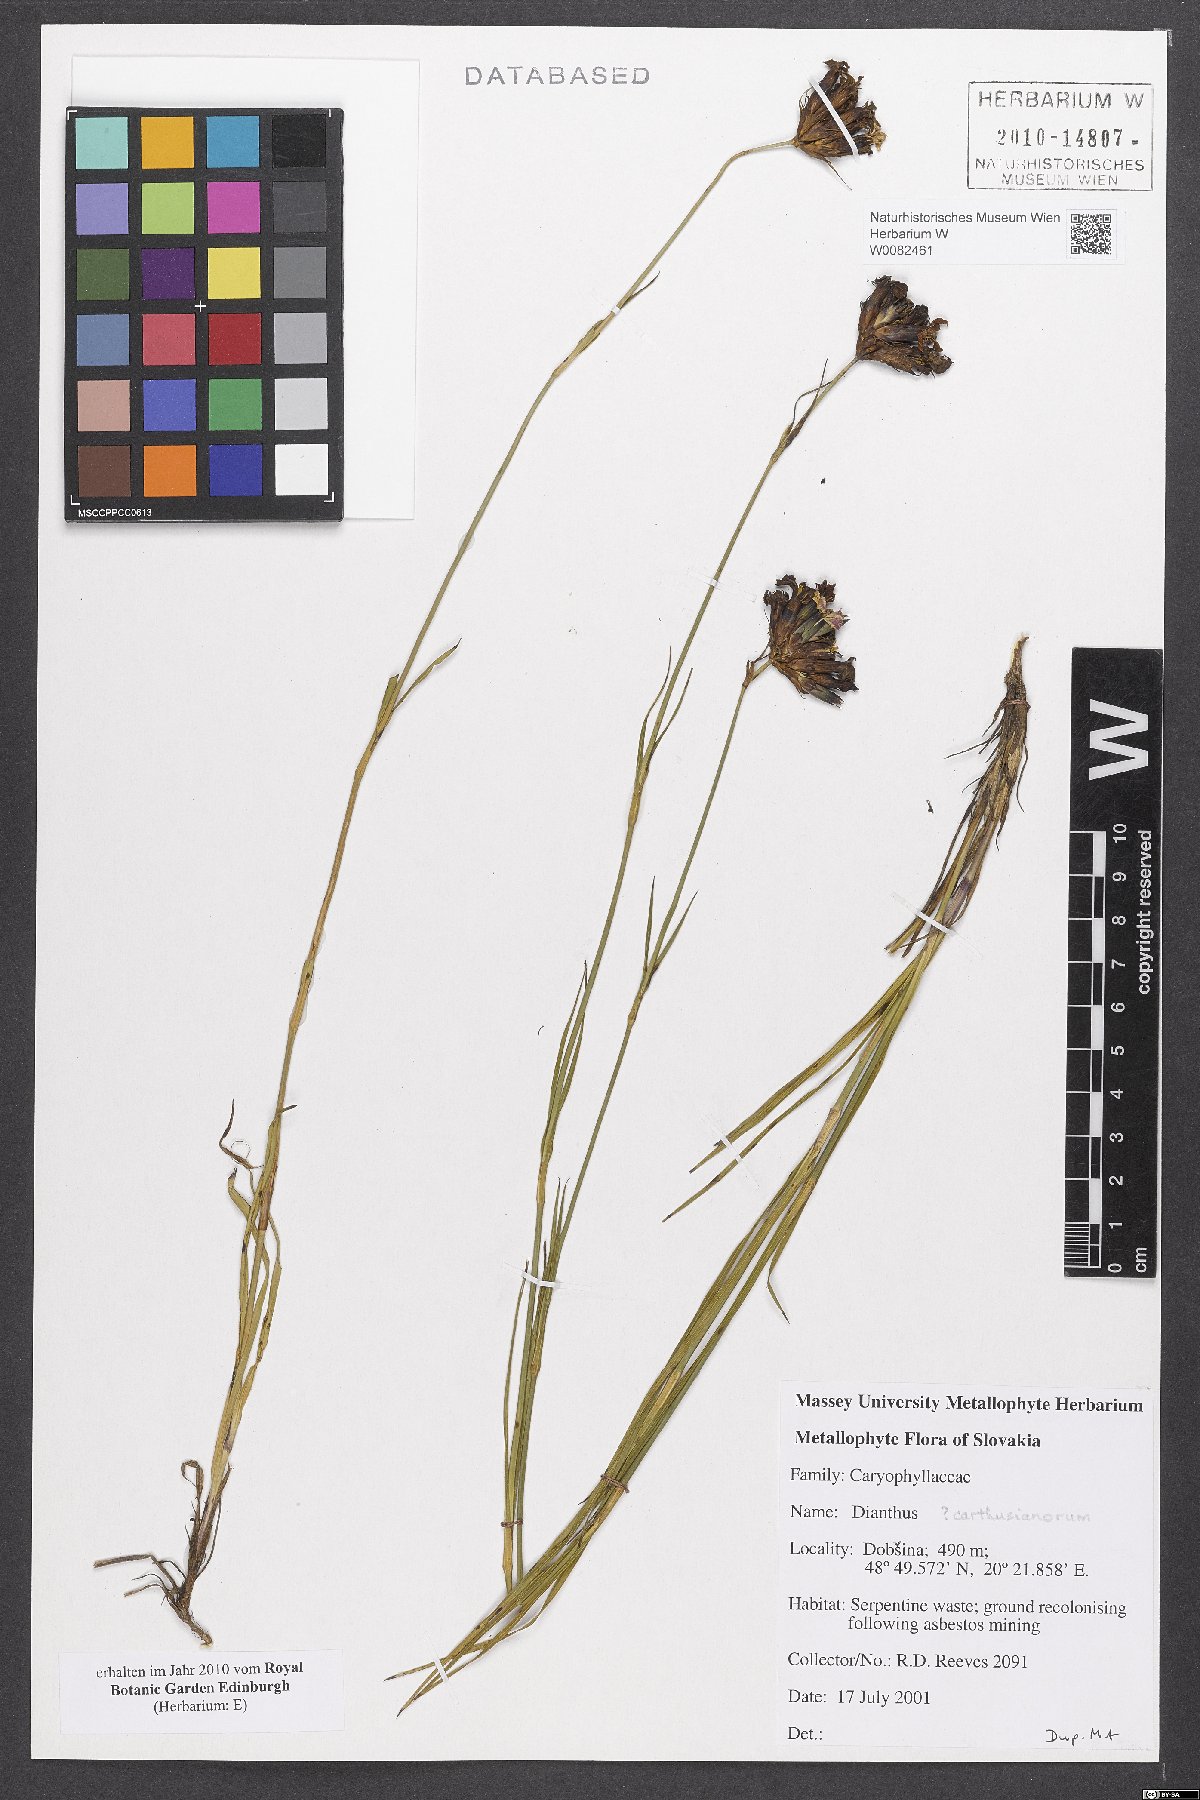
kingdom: Plantae
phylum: Tracheophyta
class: Magnoliopsida
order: Caryophyllales
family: Caryophyllaceae
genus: Dianthus
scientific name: Dianthus carthusianorum
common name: Carthusian pink
